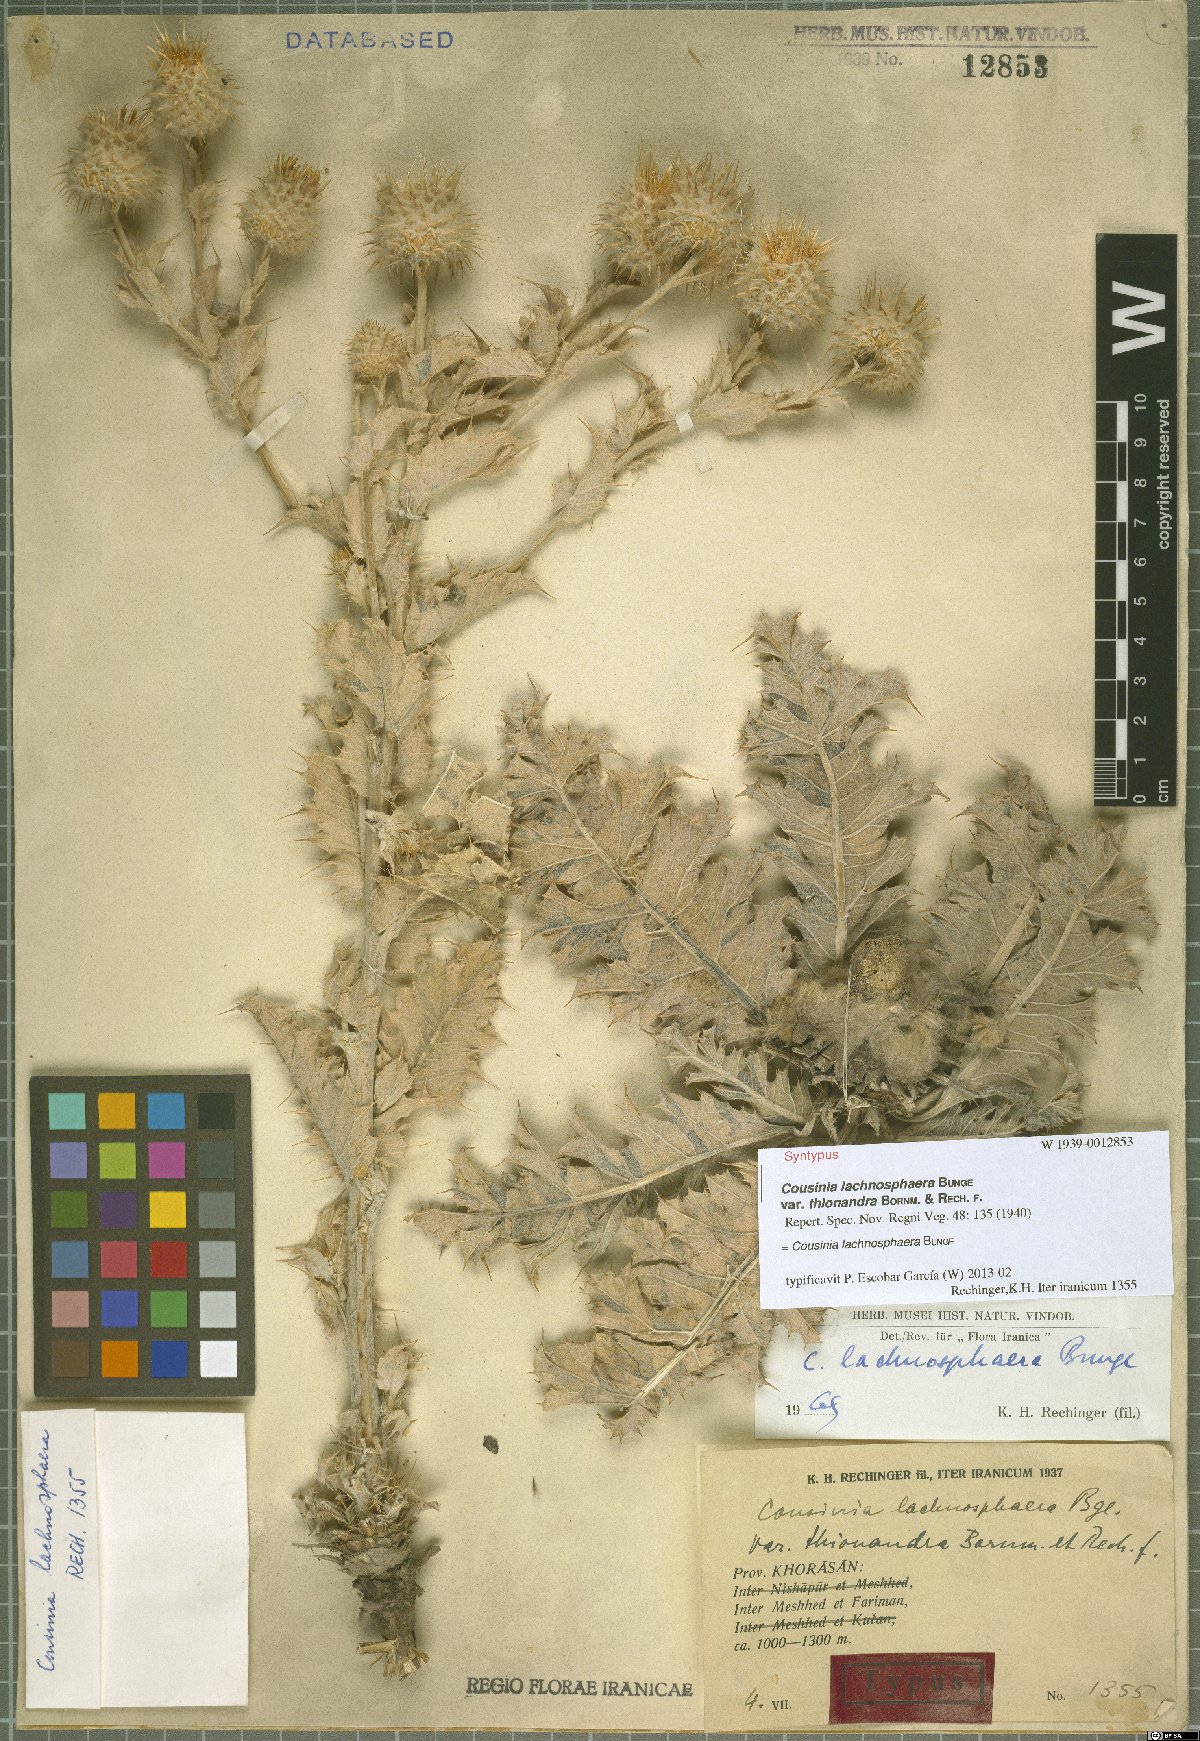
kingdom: Plantae
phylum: Tracheophyta
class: Magnoliopsida
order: Asterales
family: Asteraceae
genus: Cousinia
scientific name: Cousinia lachnosphaera
